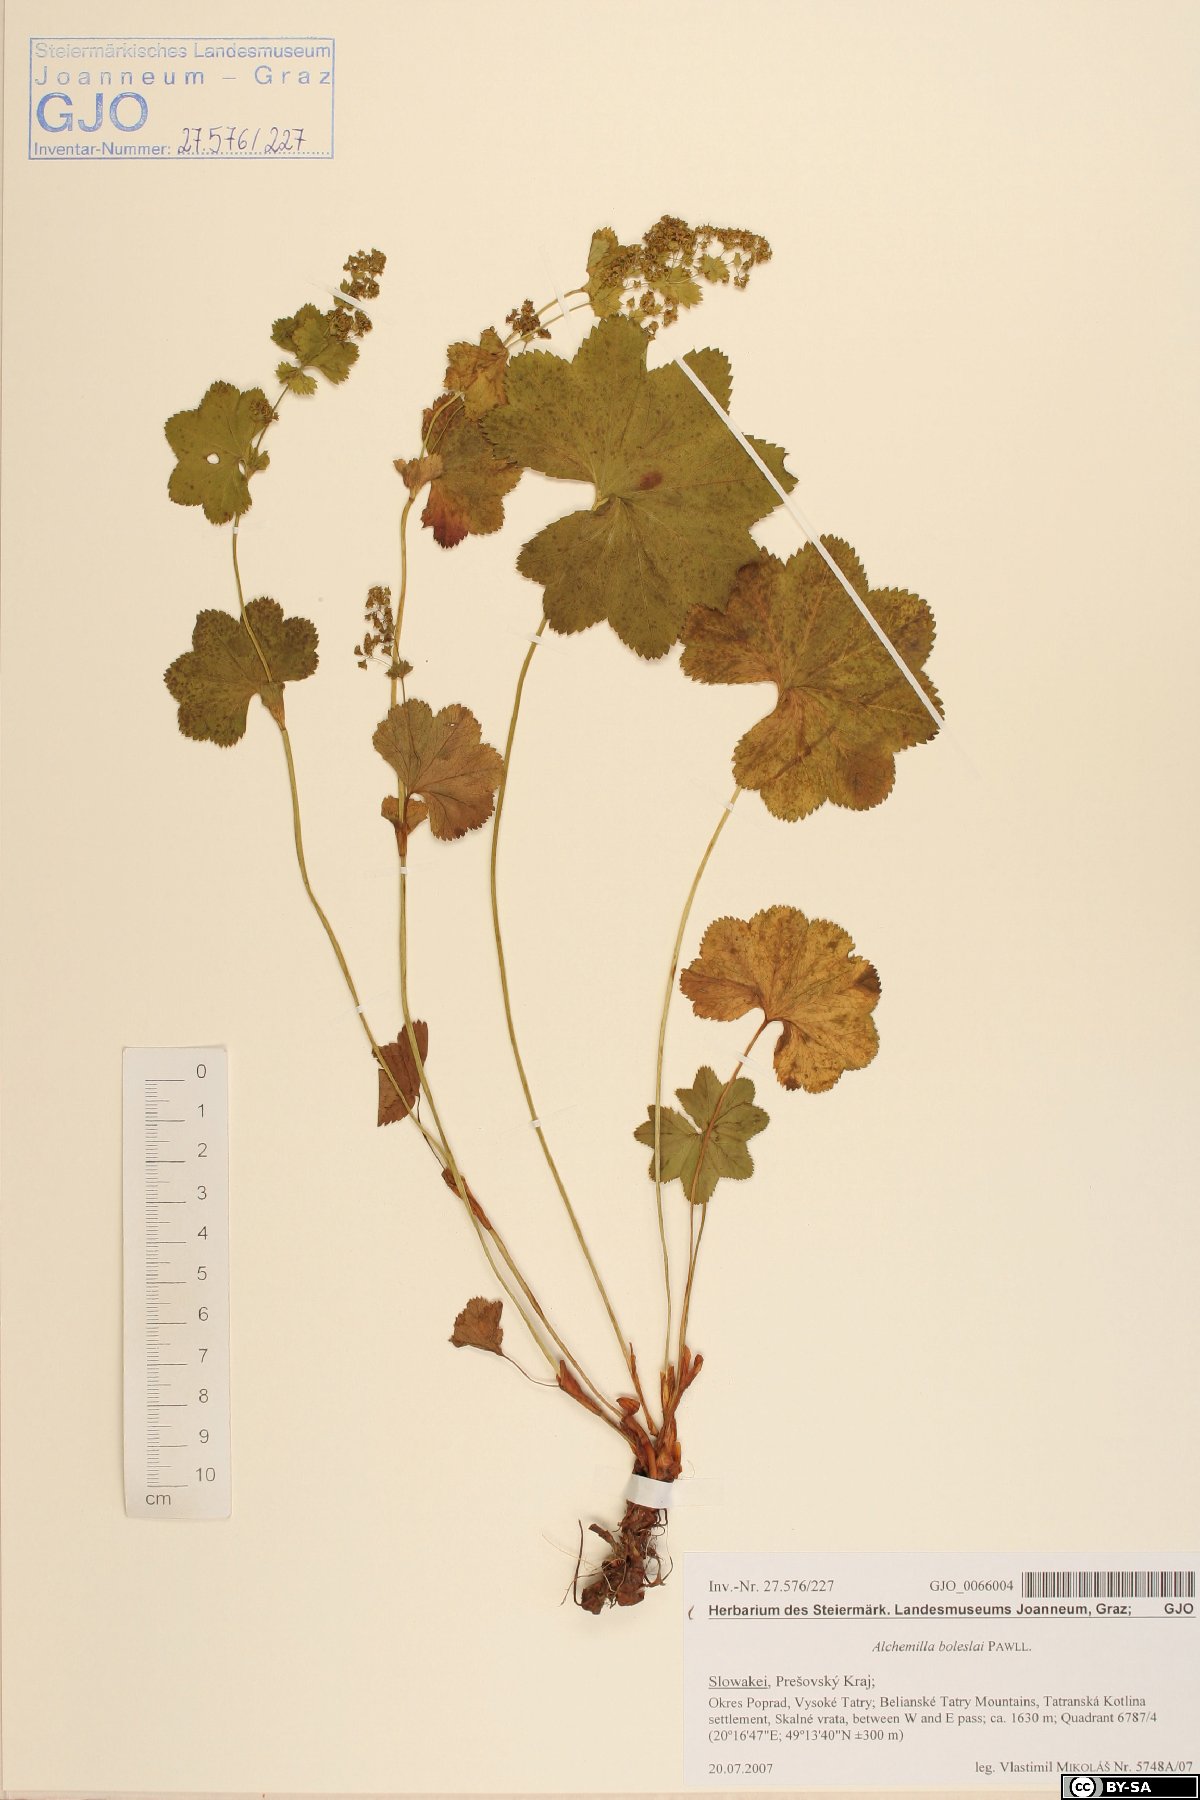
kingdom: Plantae
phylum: Tracheophyta
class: Magnoliopsida
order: Rosales
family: Rosaceae
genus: Alchemilla
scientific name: Alchemilla boleslai
